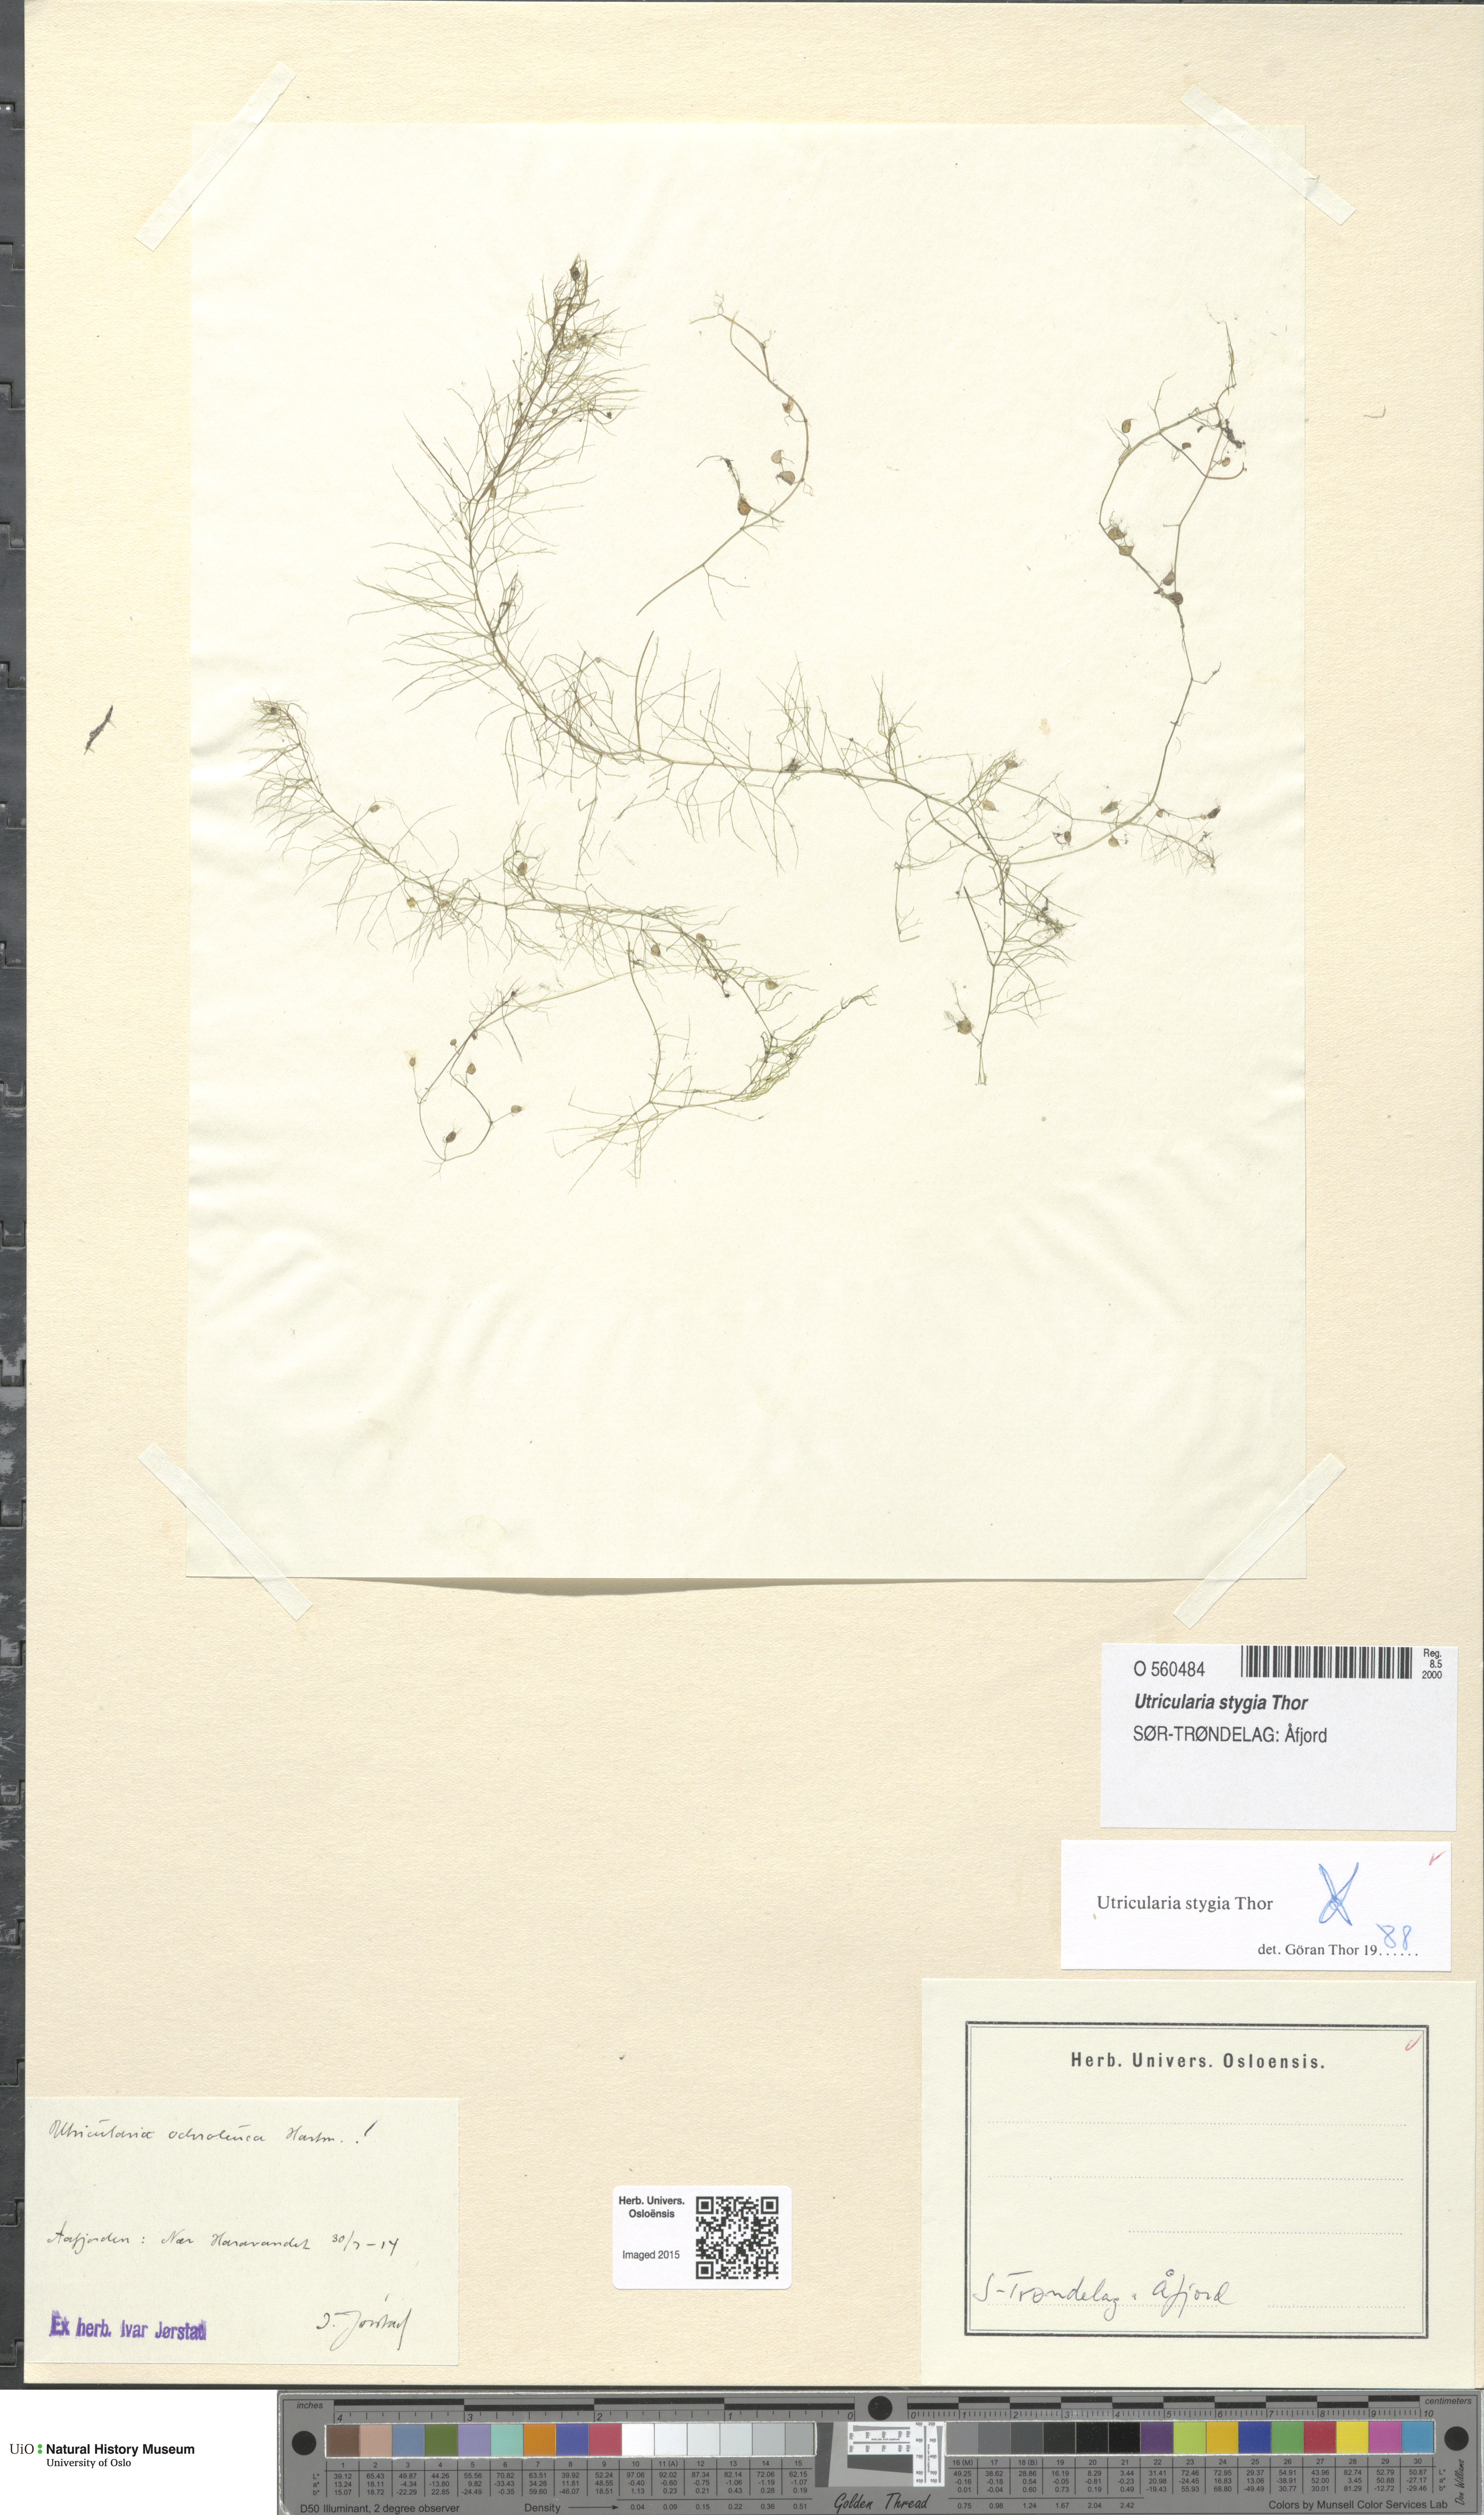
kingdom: Plantae
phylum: Tracheophyta
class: Magnoliopsida
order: Lamiales
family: Lentibulariaceae
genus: Utricularia
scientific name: Utricularia ochroleuca
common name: Pale bladderwort
